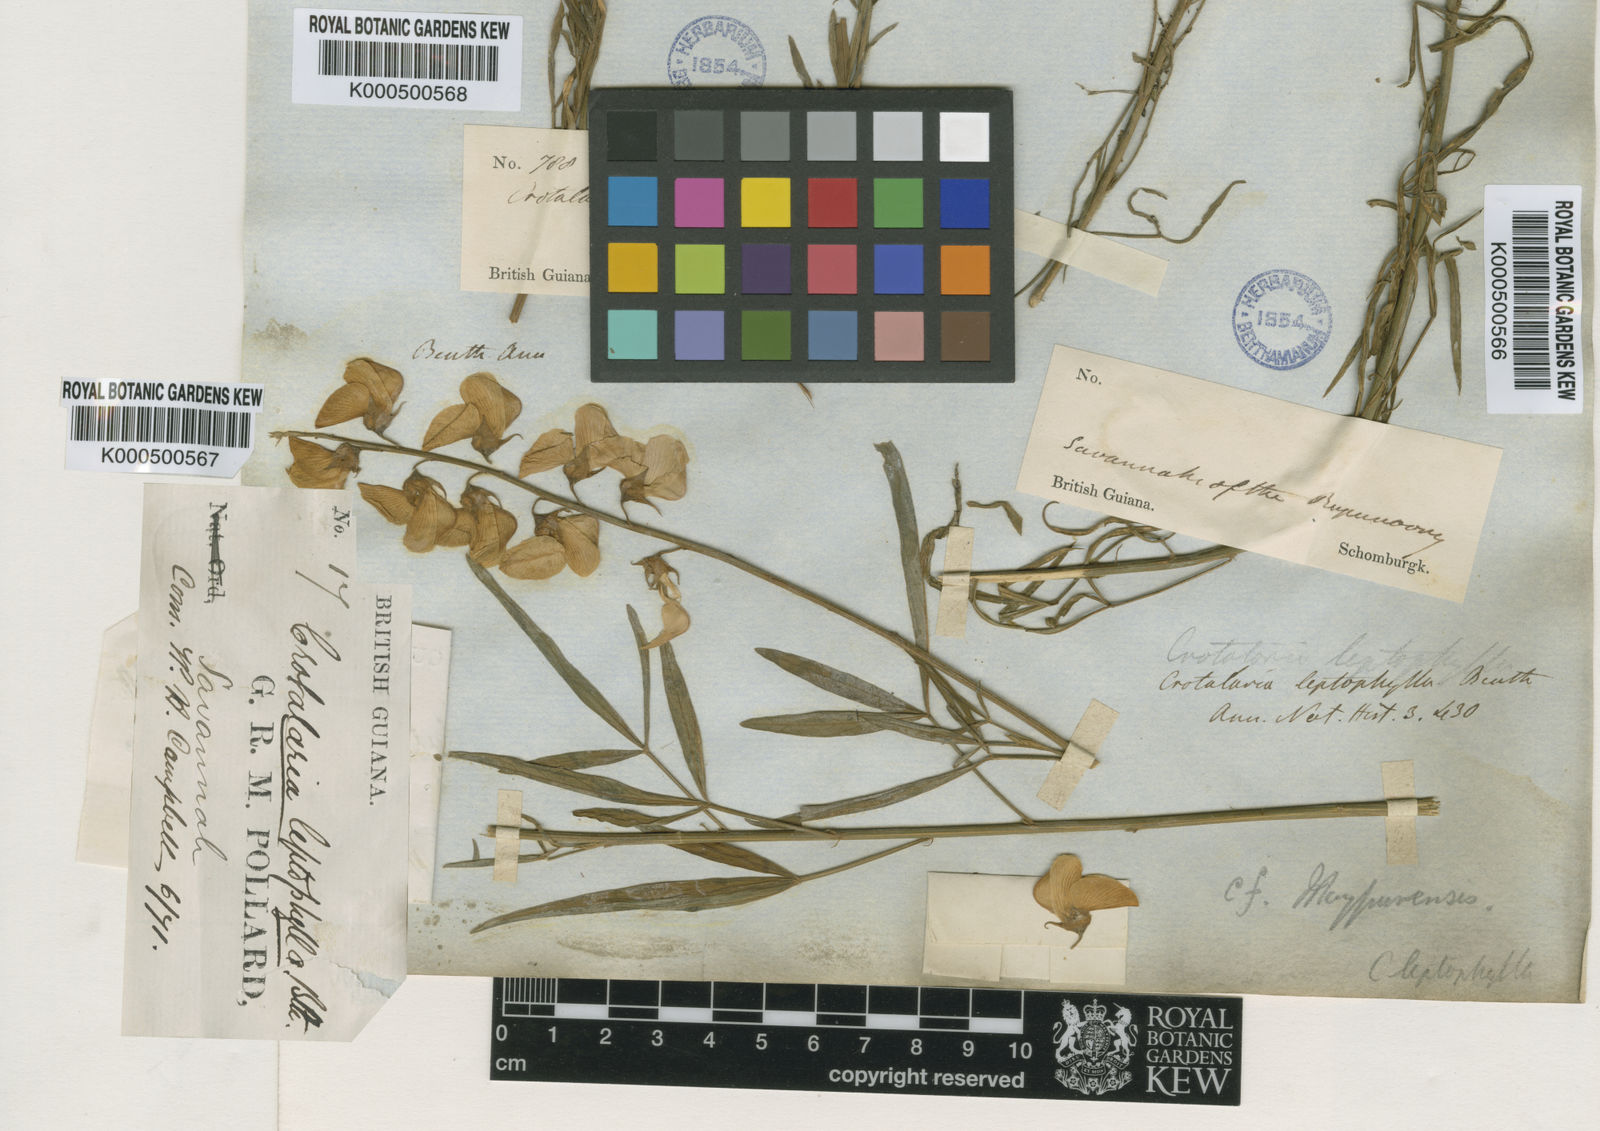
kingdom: Plantae
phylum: Tracheophyta
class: Magnoliopsida
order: Fabales
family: Fabaceae
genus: Crotalaria
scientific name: Crotalaria maypurensis
